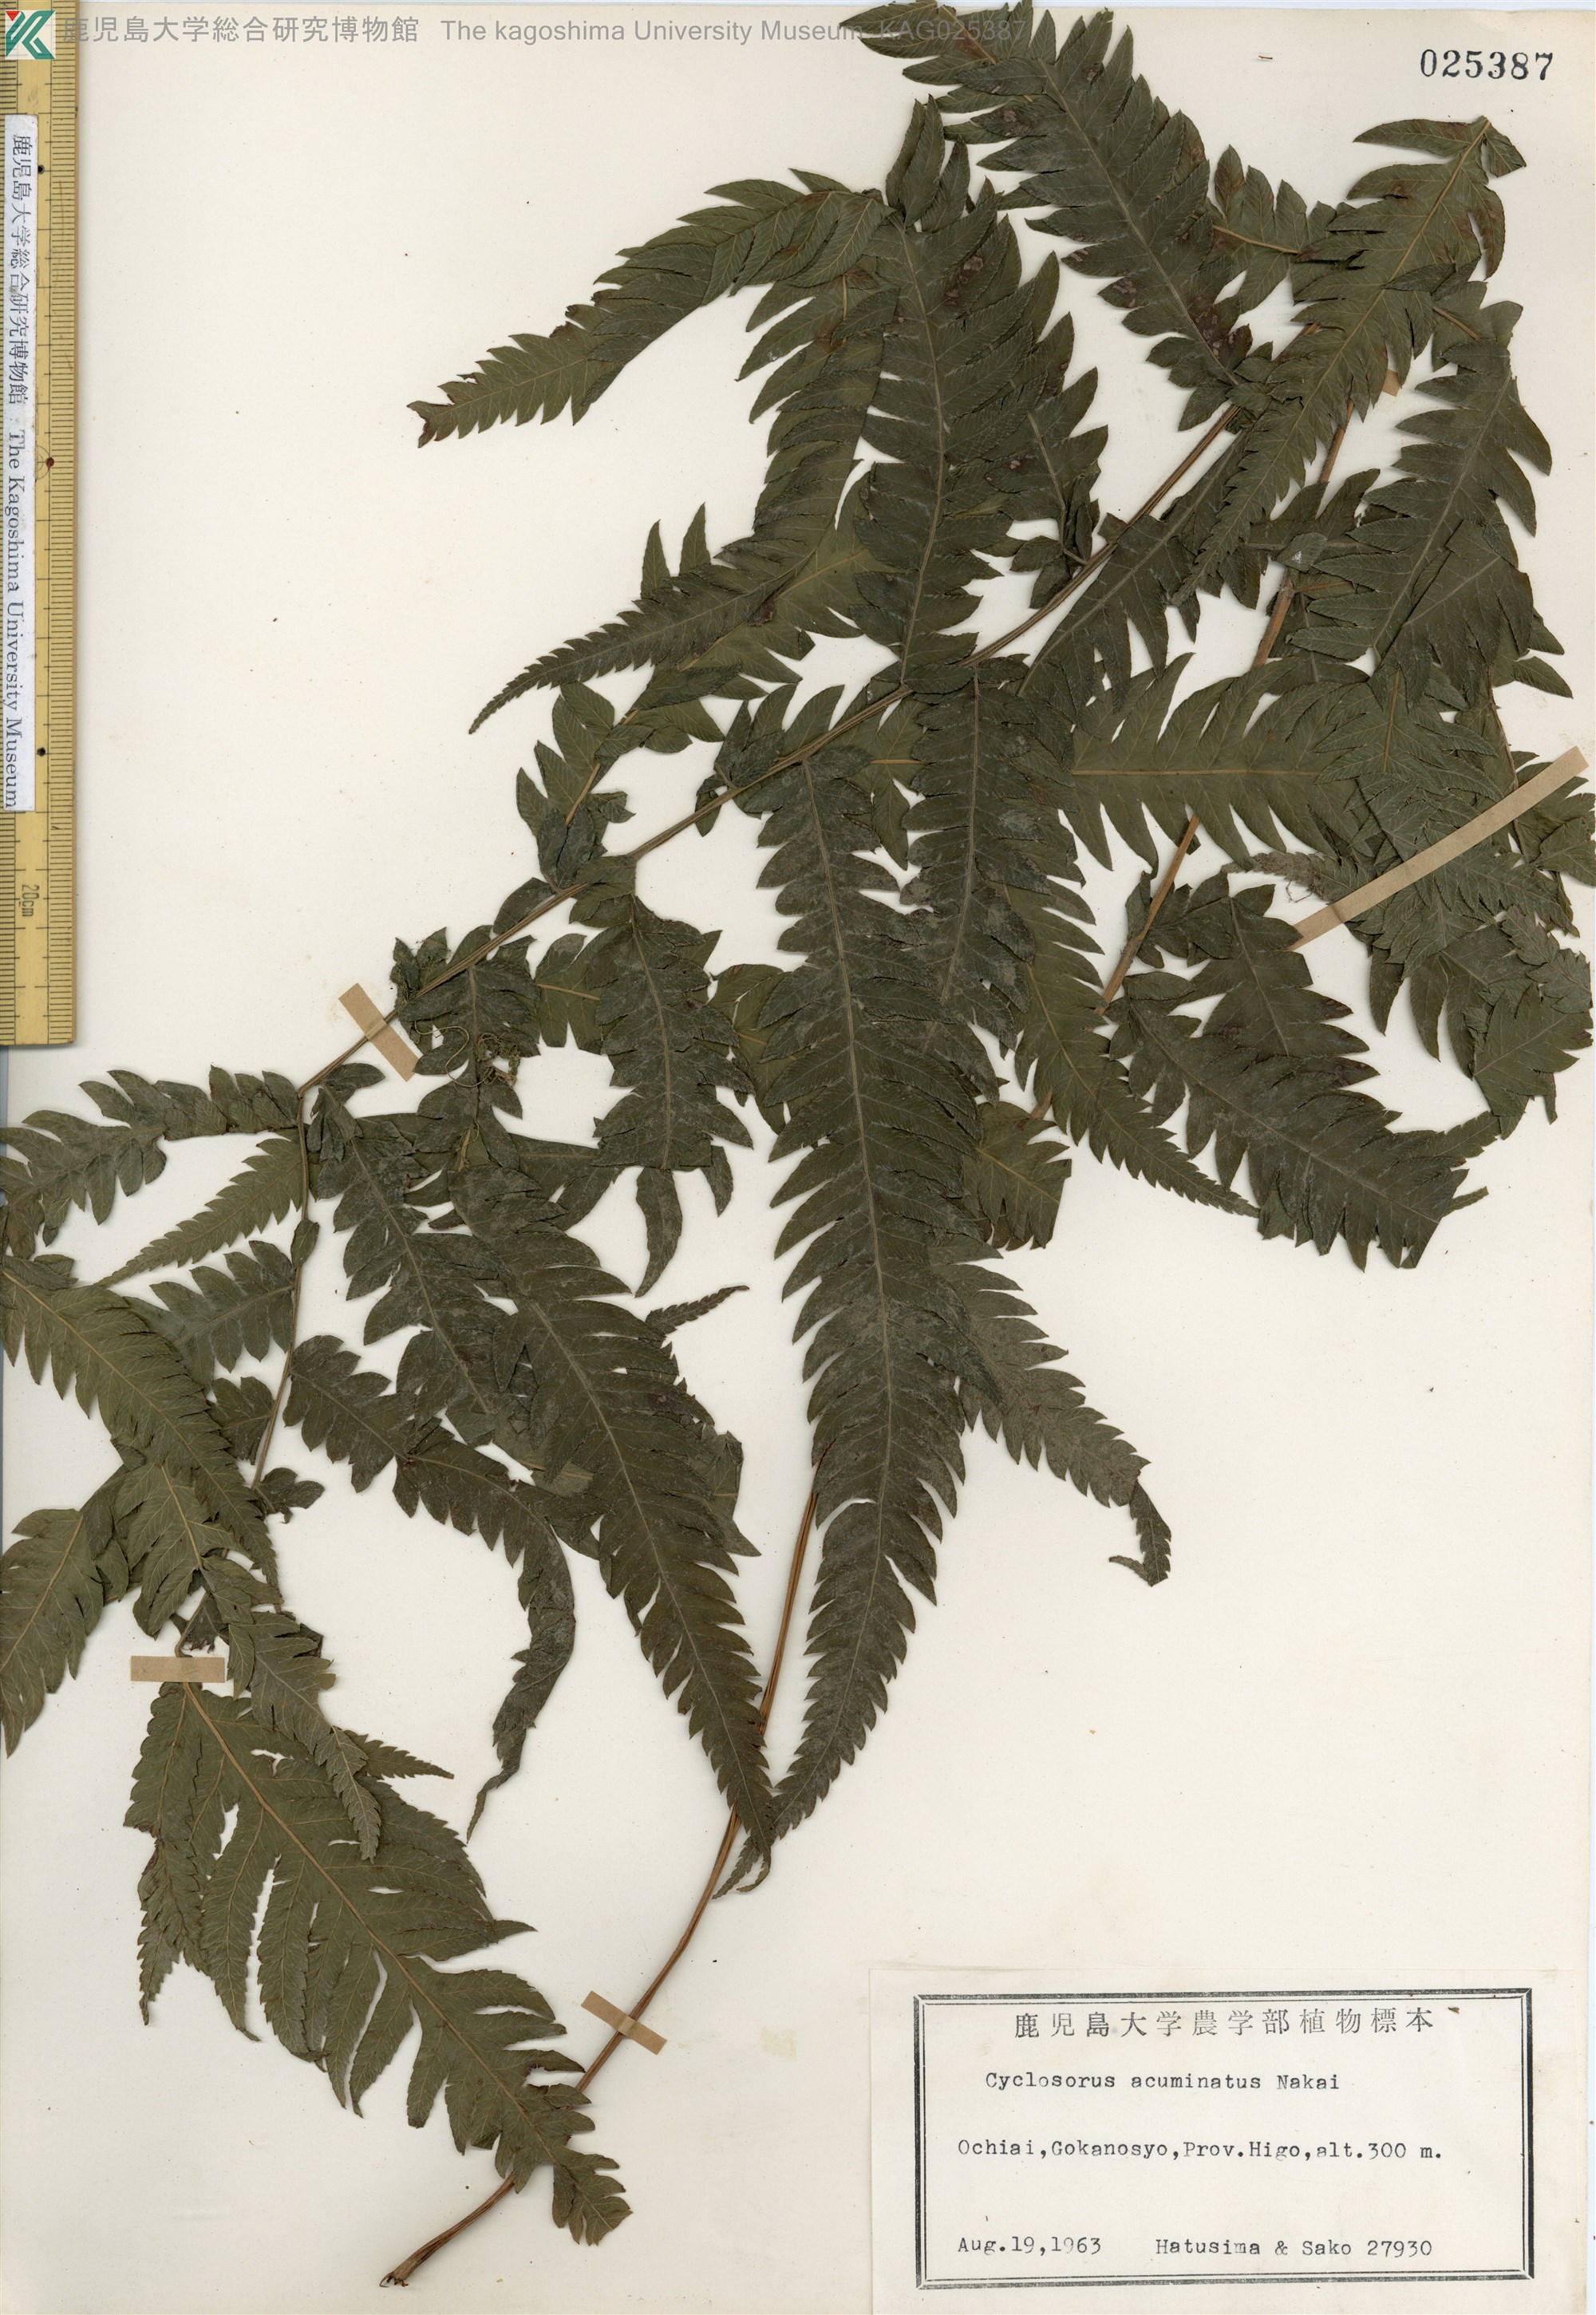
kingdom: Plantae
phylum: Tracheophyta
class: Polypodiopsida
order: Polypodiales
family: Thelypteridaceae
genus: Christella
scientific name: Christella acuminata
